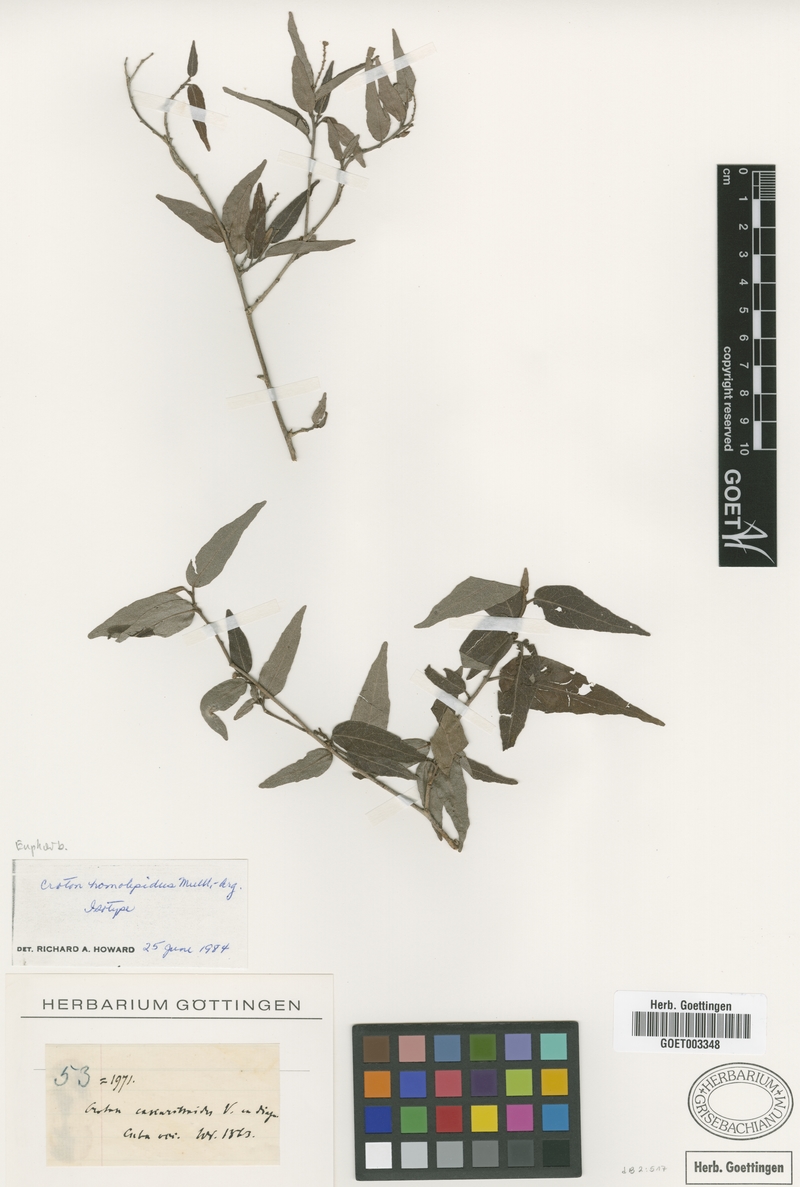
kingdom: Plantae
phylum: Tracheophyta
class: Magnoliopsida
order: Malpighiales
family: Euphorbiaceae
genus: Croton
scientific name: Croton eluteria
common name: Seaside balsam
